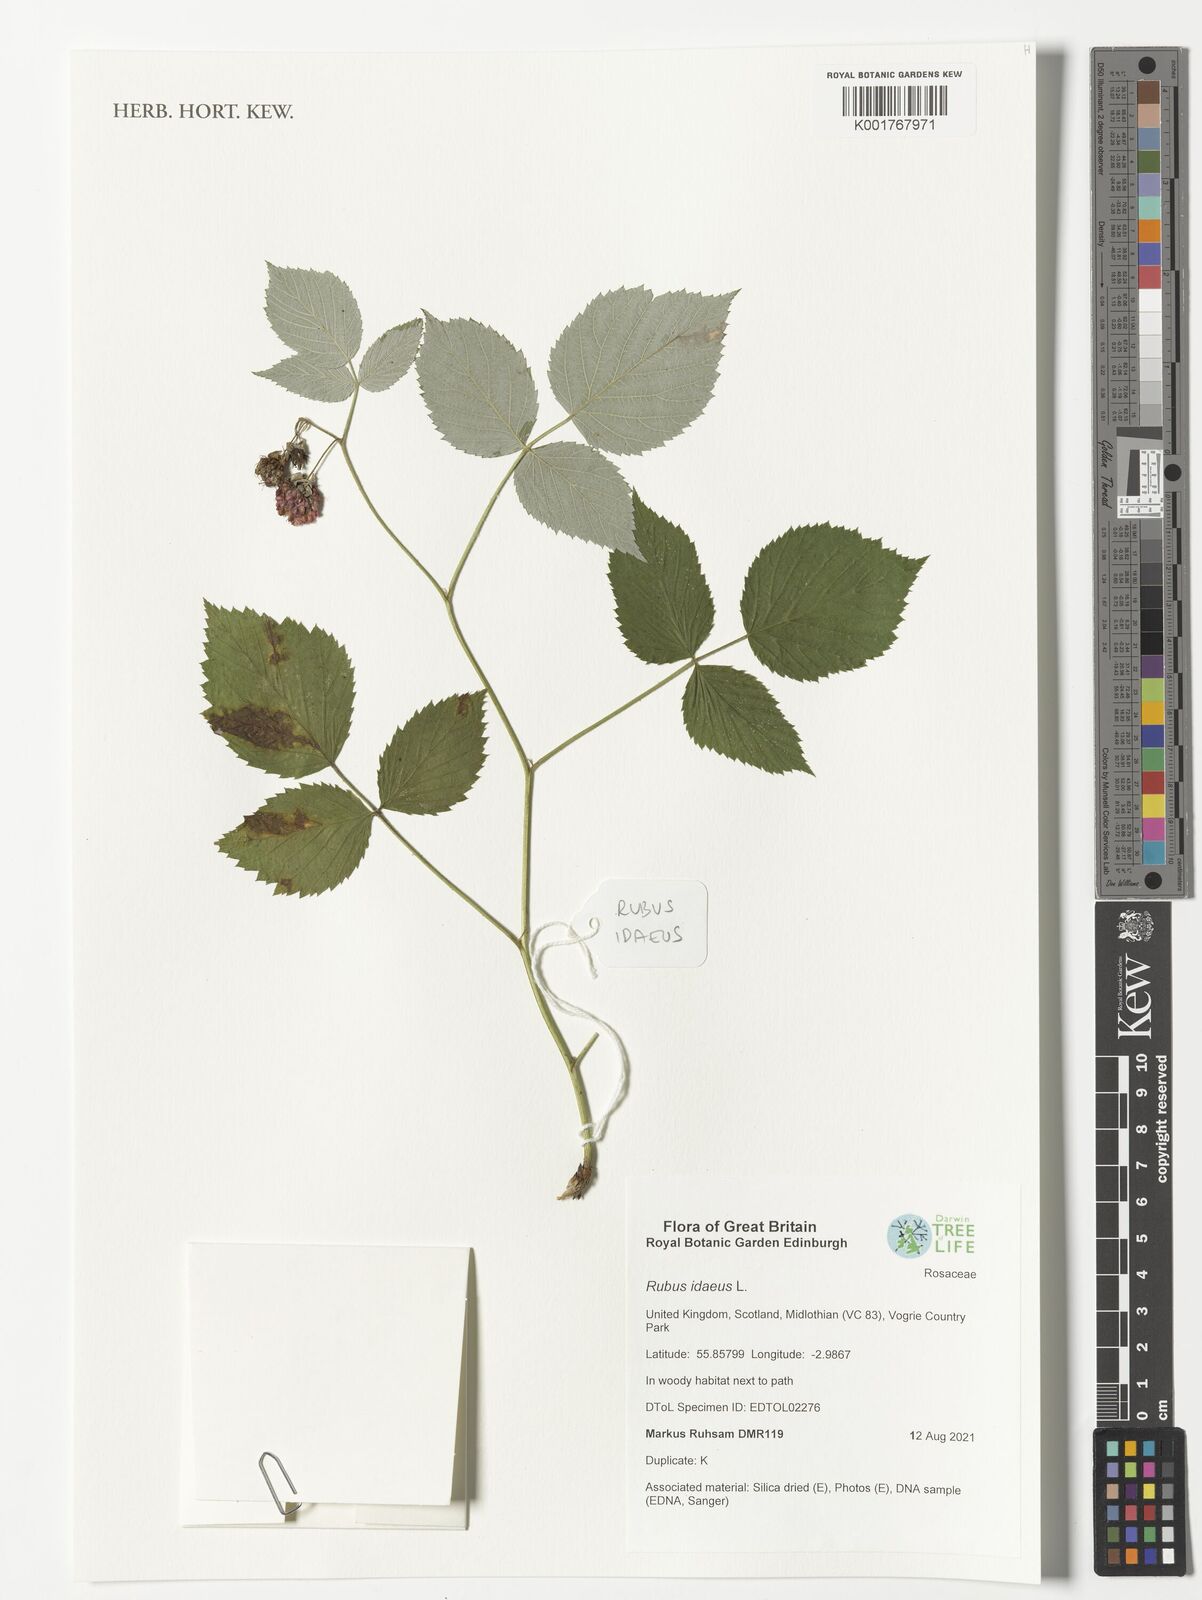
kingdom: Plantae
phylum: Tracheophyta
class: Magnoliopsida
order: Rosales
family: Rosaceae
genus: Rubus
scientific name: Rubus idaeus
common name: Raspberry
